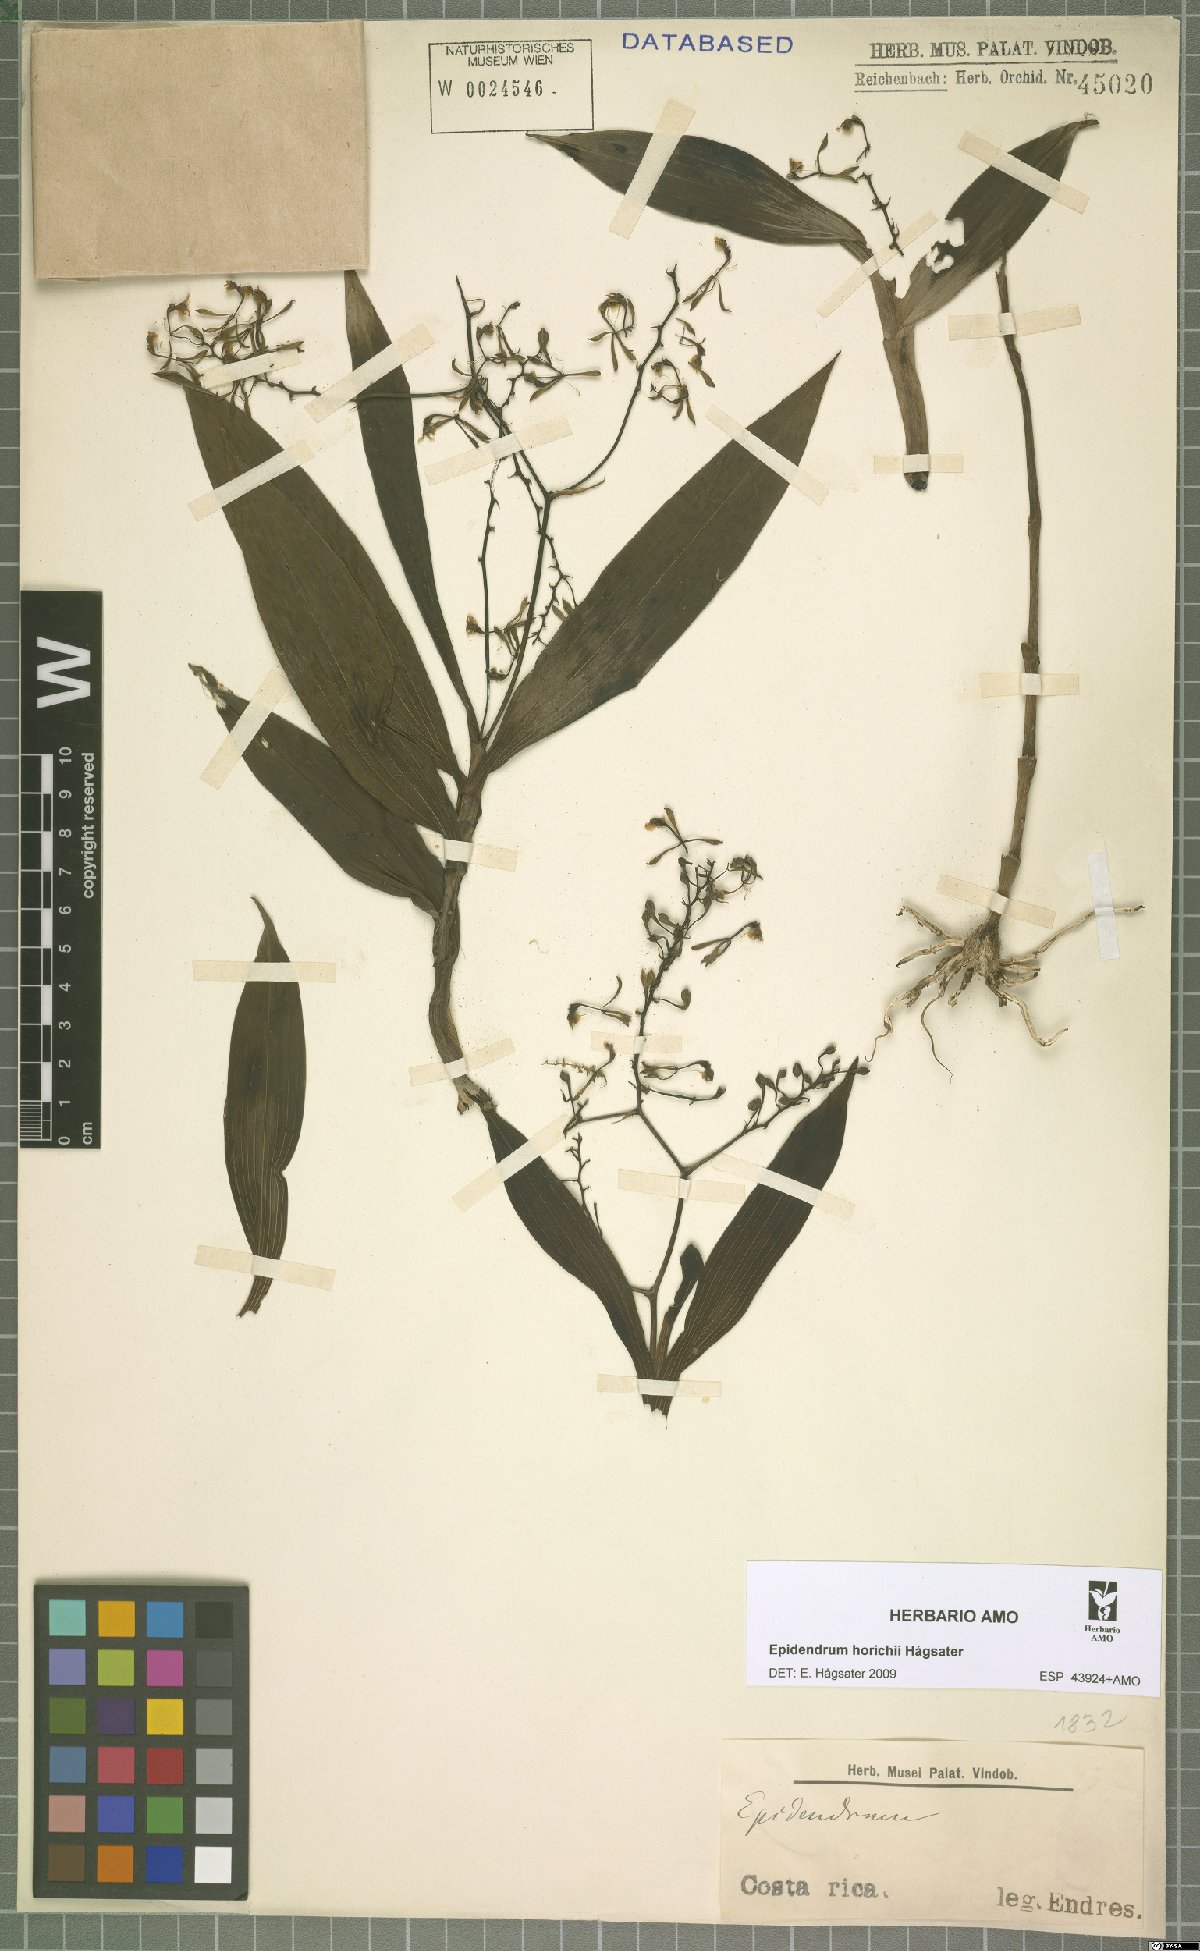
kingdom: Plantae
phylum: Tracheophyta
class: Liliopsida
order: Asparagales
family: Orchidaceae
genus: Epidendrum
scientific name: Epidendrum horichii
